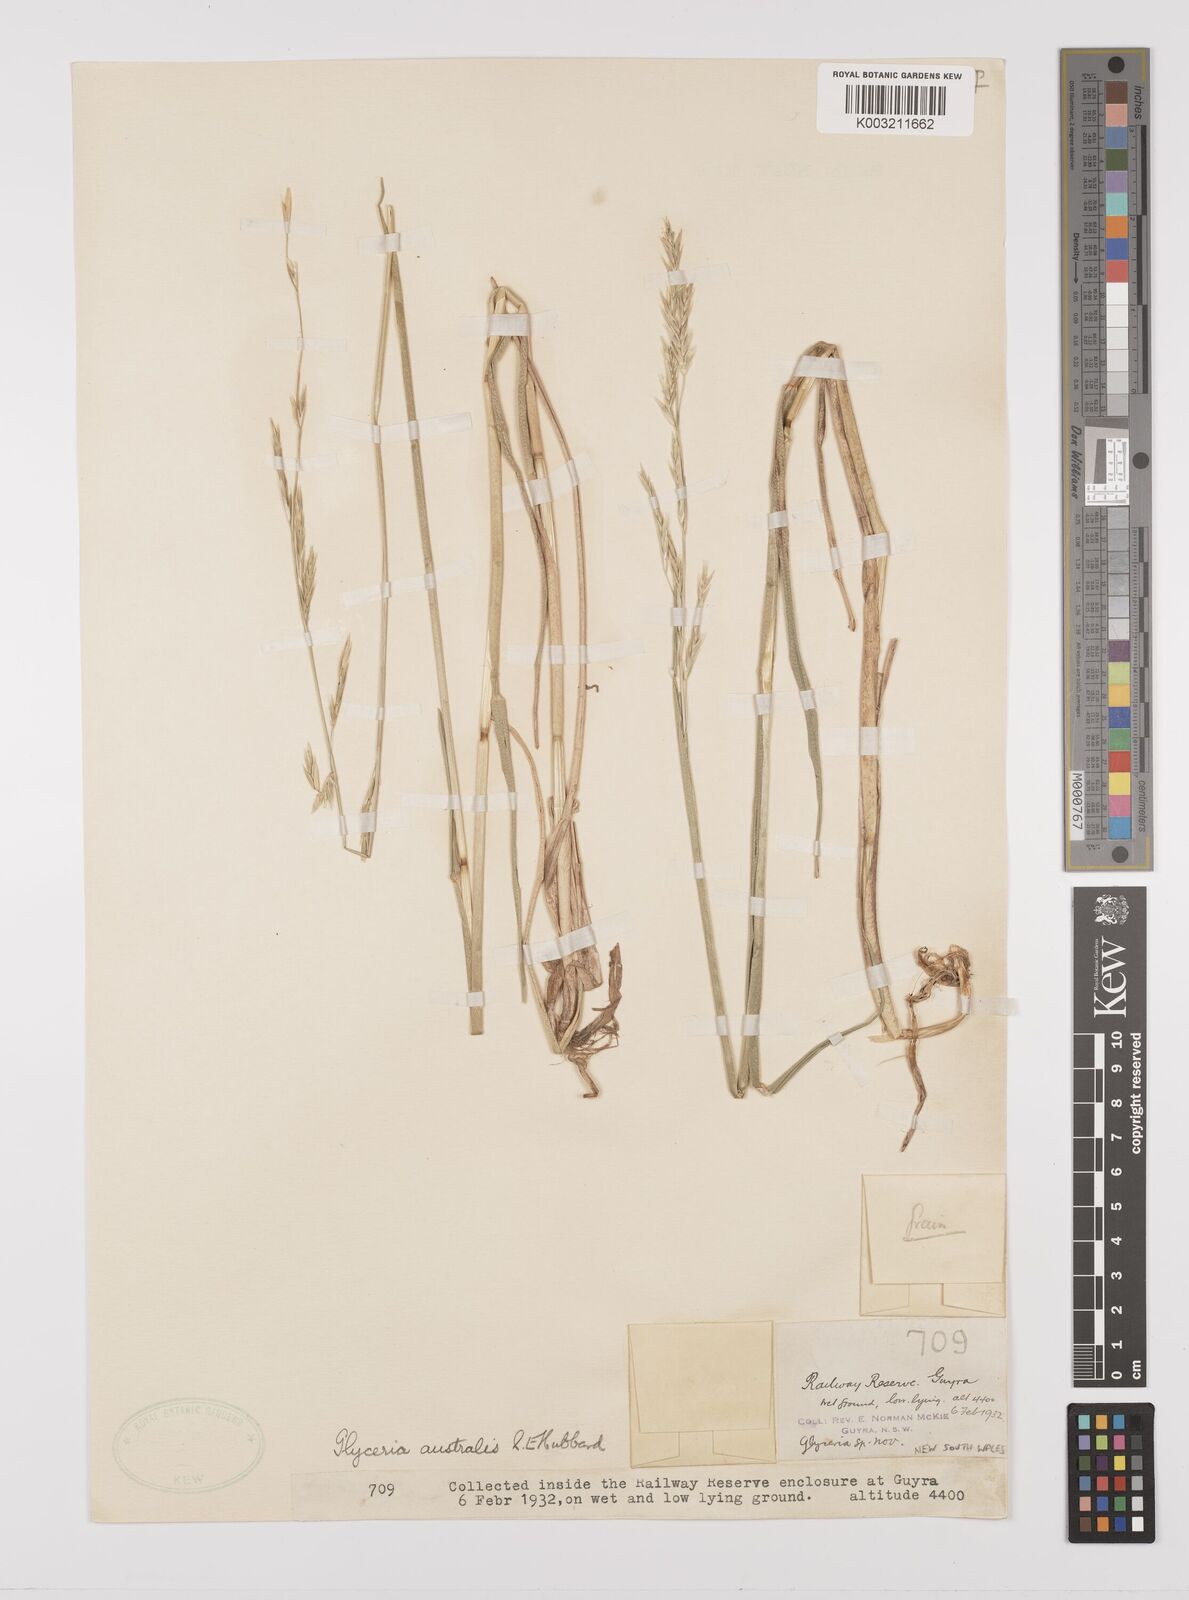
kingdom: Plantae
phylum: Tracheophyta
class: Liliopsida
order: Poales
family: Poaceae
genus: Glyceria
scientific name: Glyceria australis
